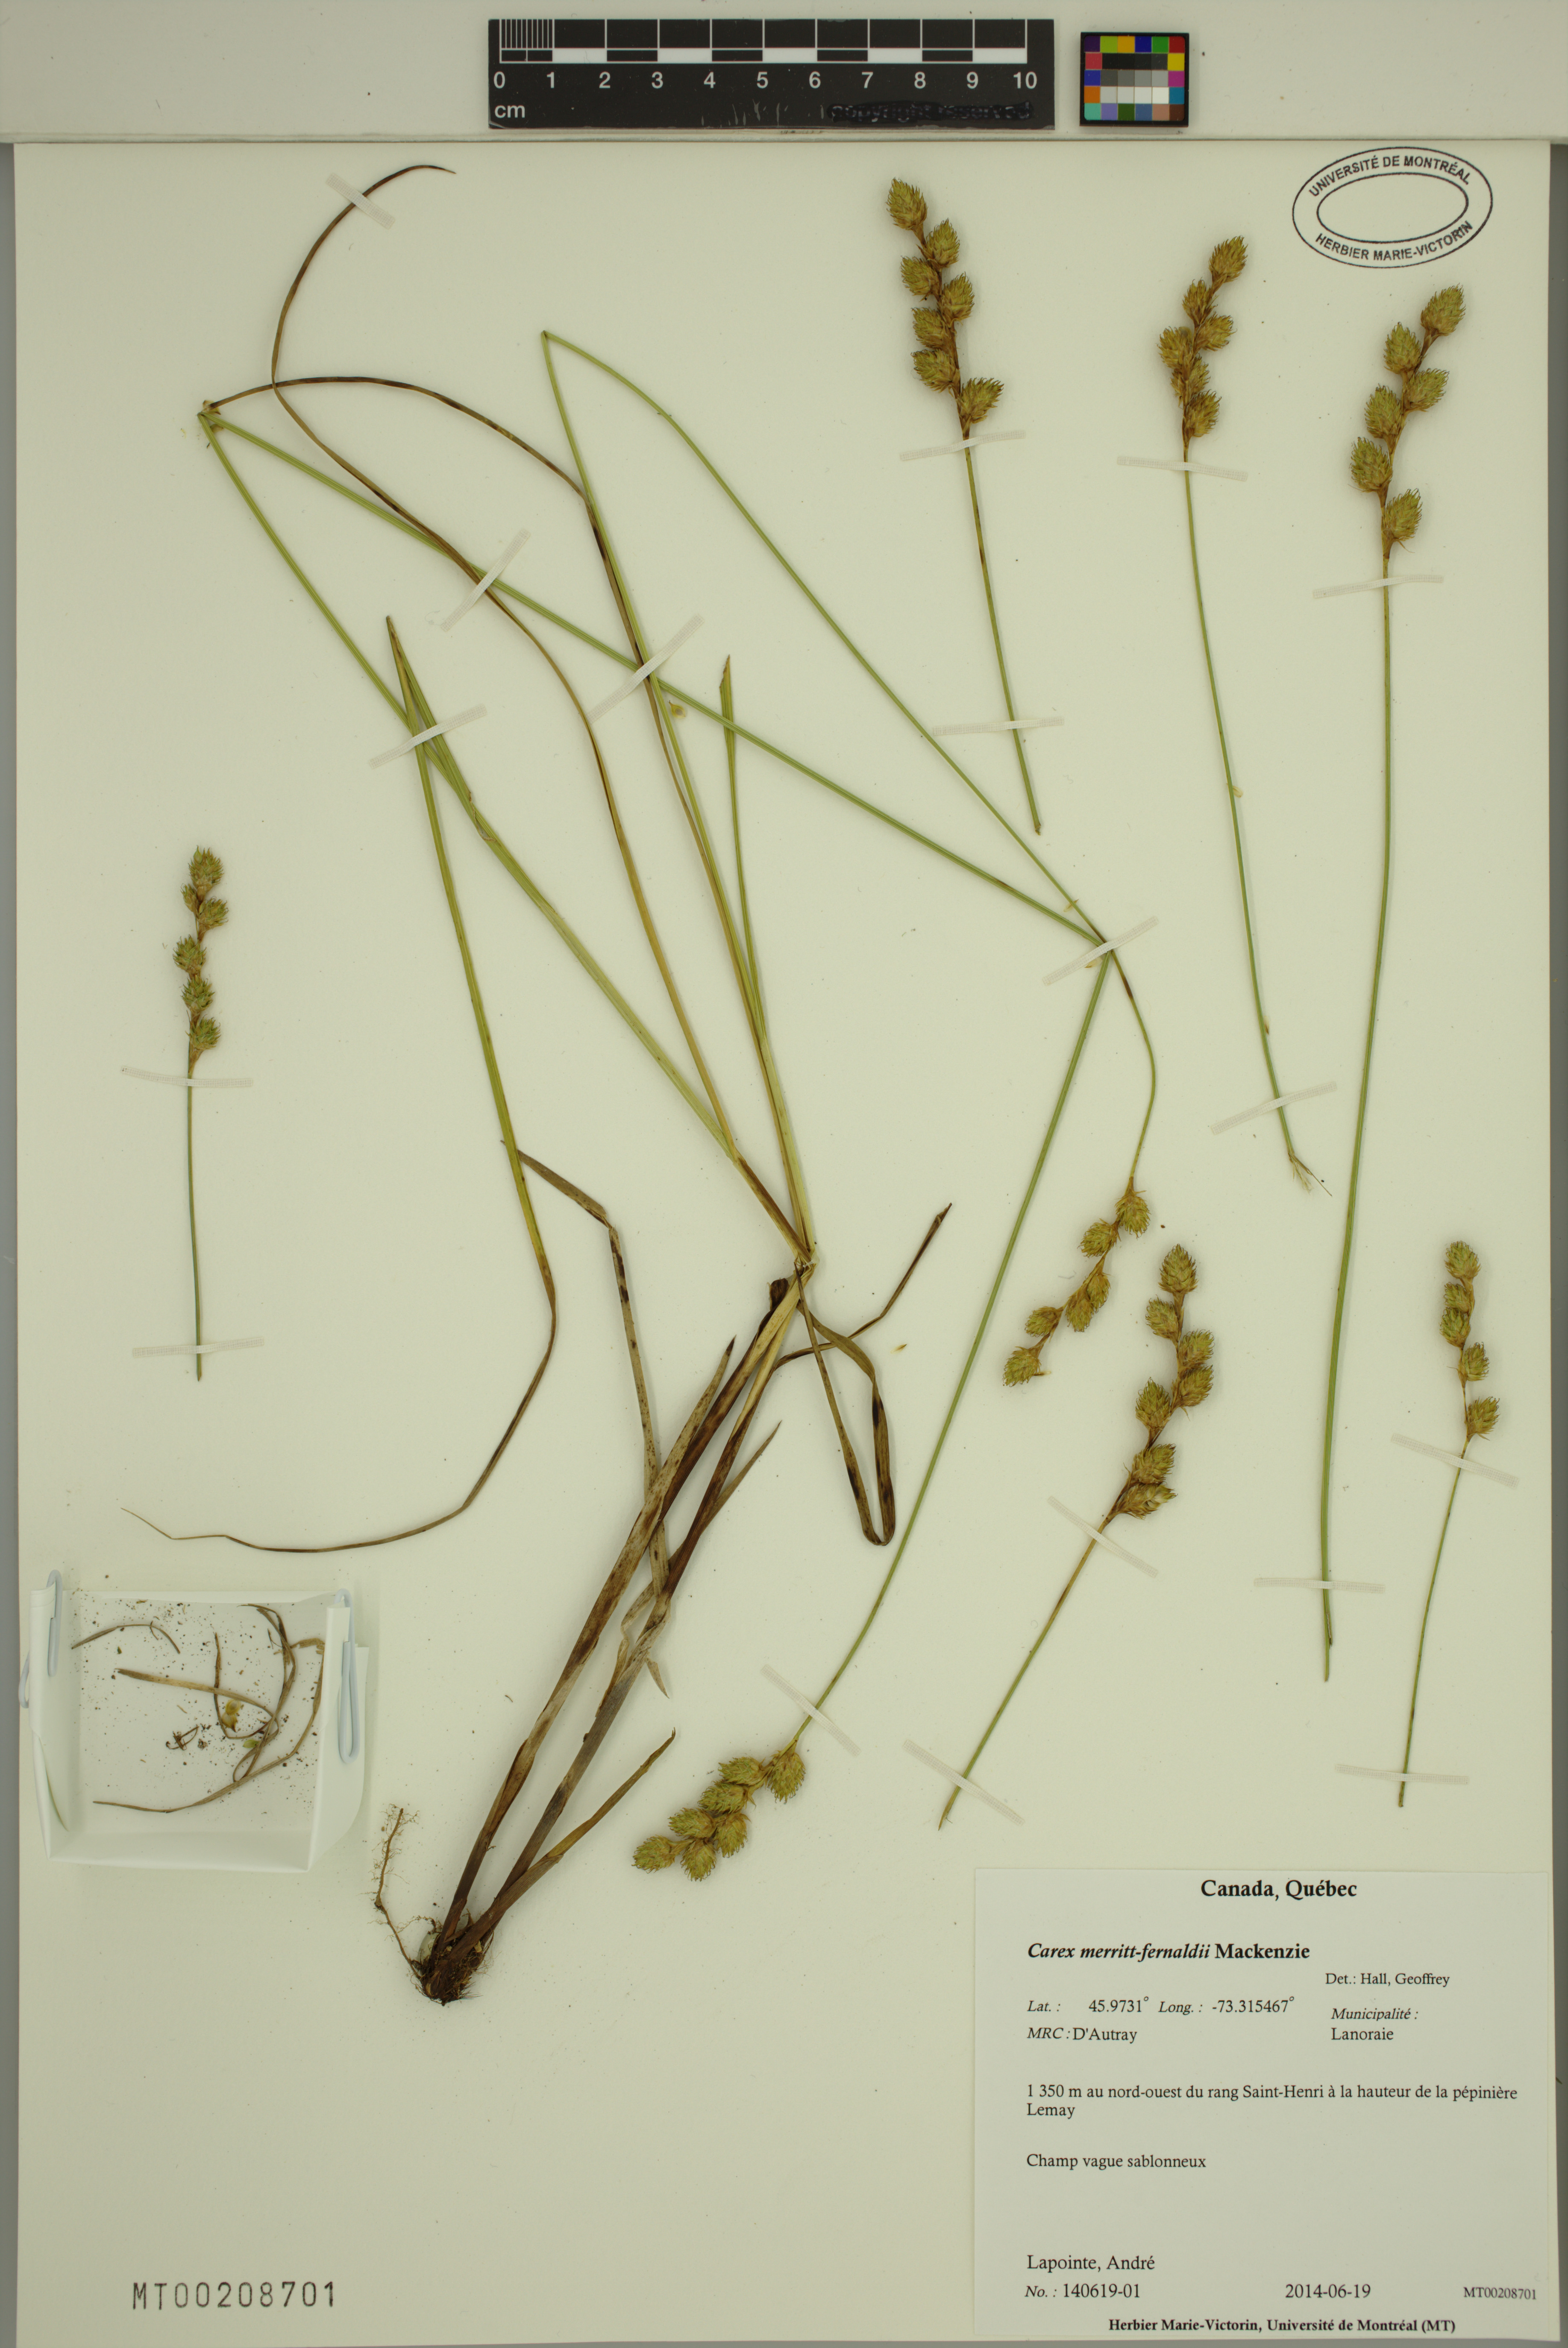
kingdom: Plantae
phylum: Tracheophyta
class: Liliopsida
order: Poales
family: Cyperaceae
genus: Carex
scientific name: Carex merritt-fernaldii
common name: Fernald's oval sedge
